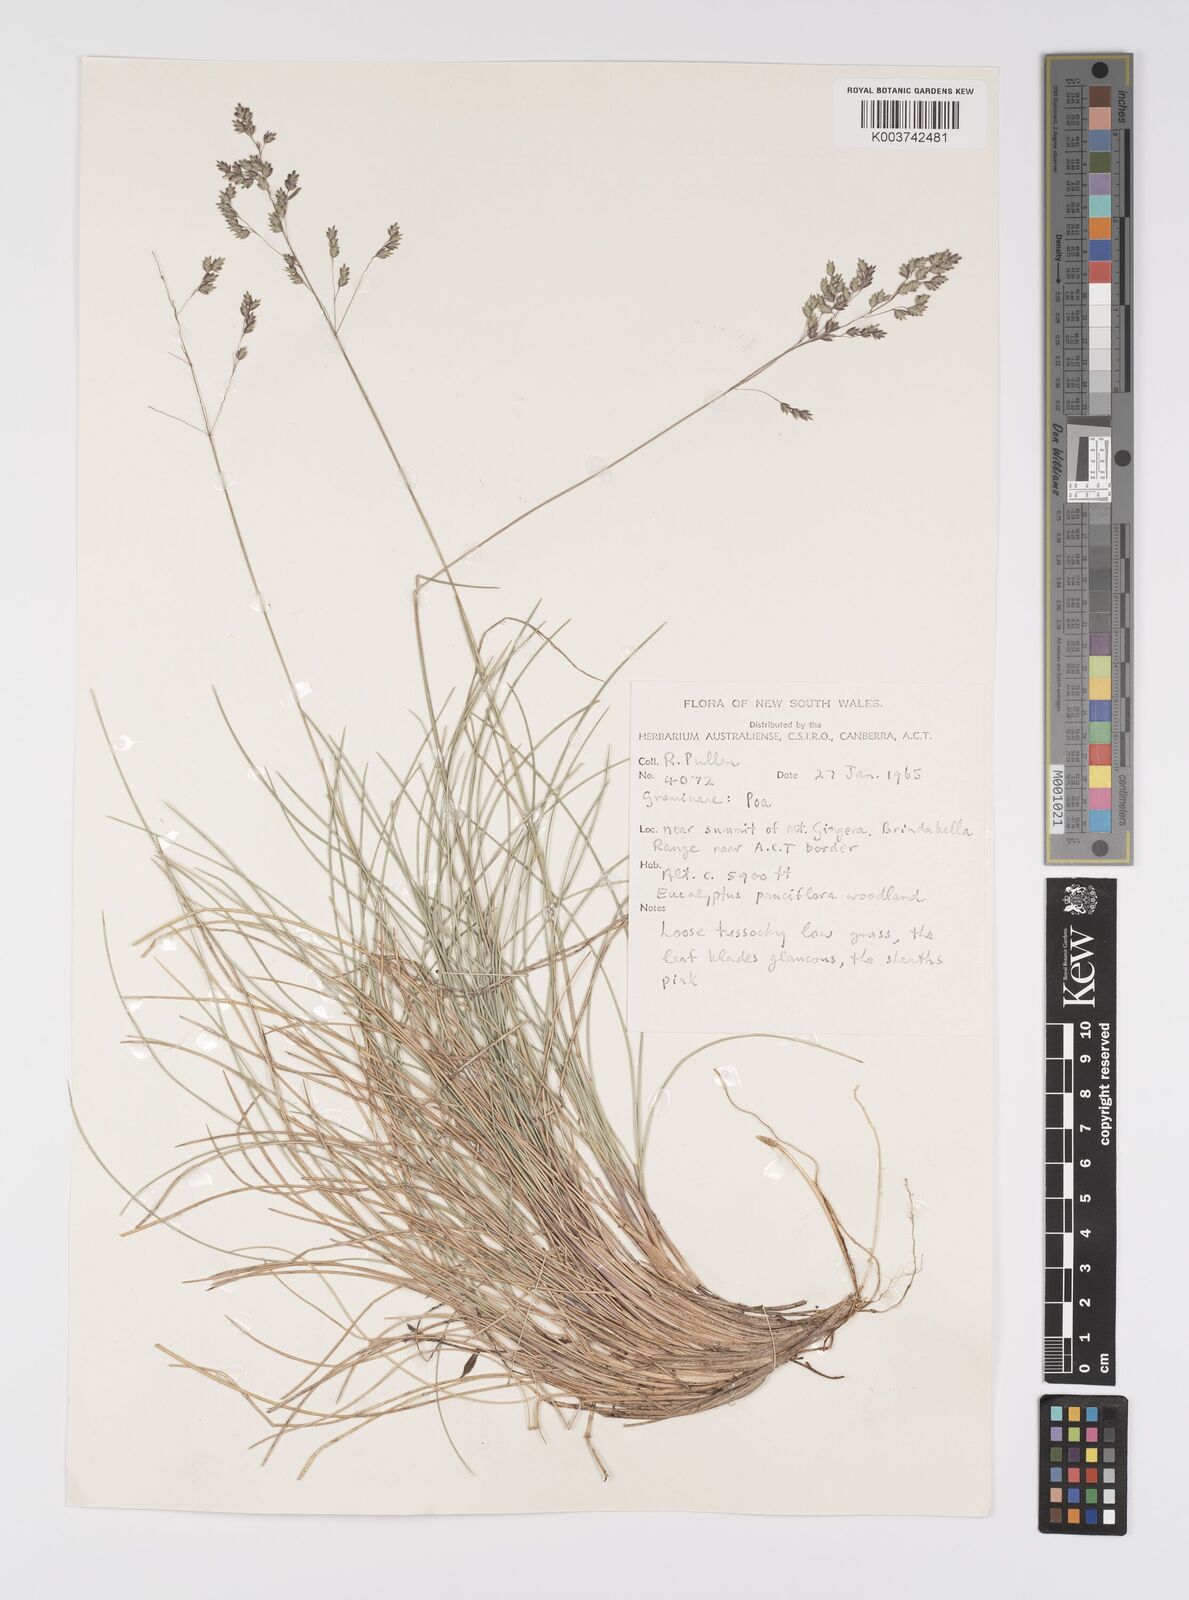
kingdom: Plantae
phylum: Tracheophyta
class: Liliopsida
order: Poales
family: Poaceae
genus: Poa
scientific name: Poa
